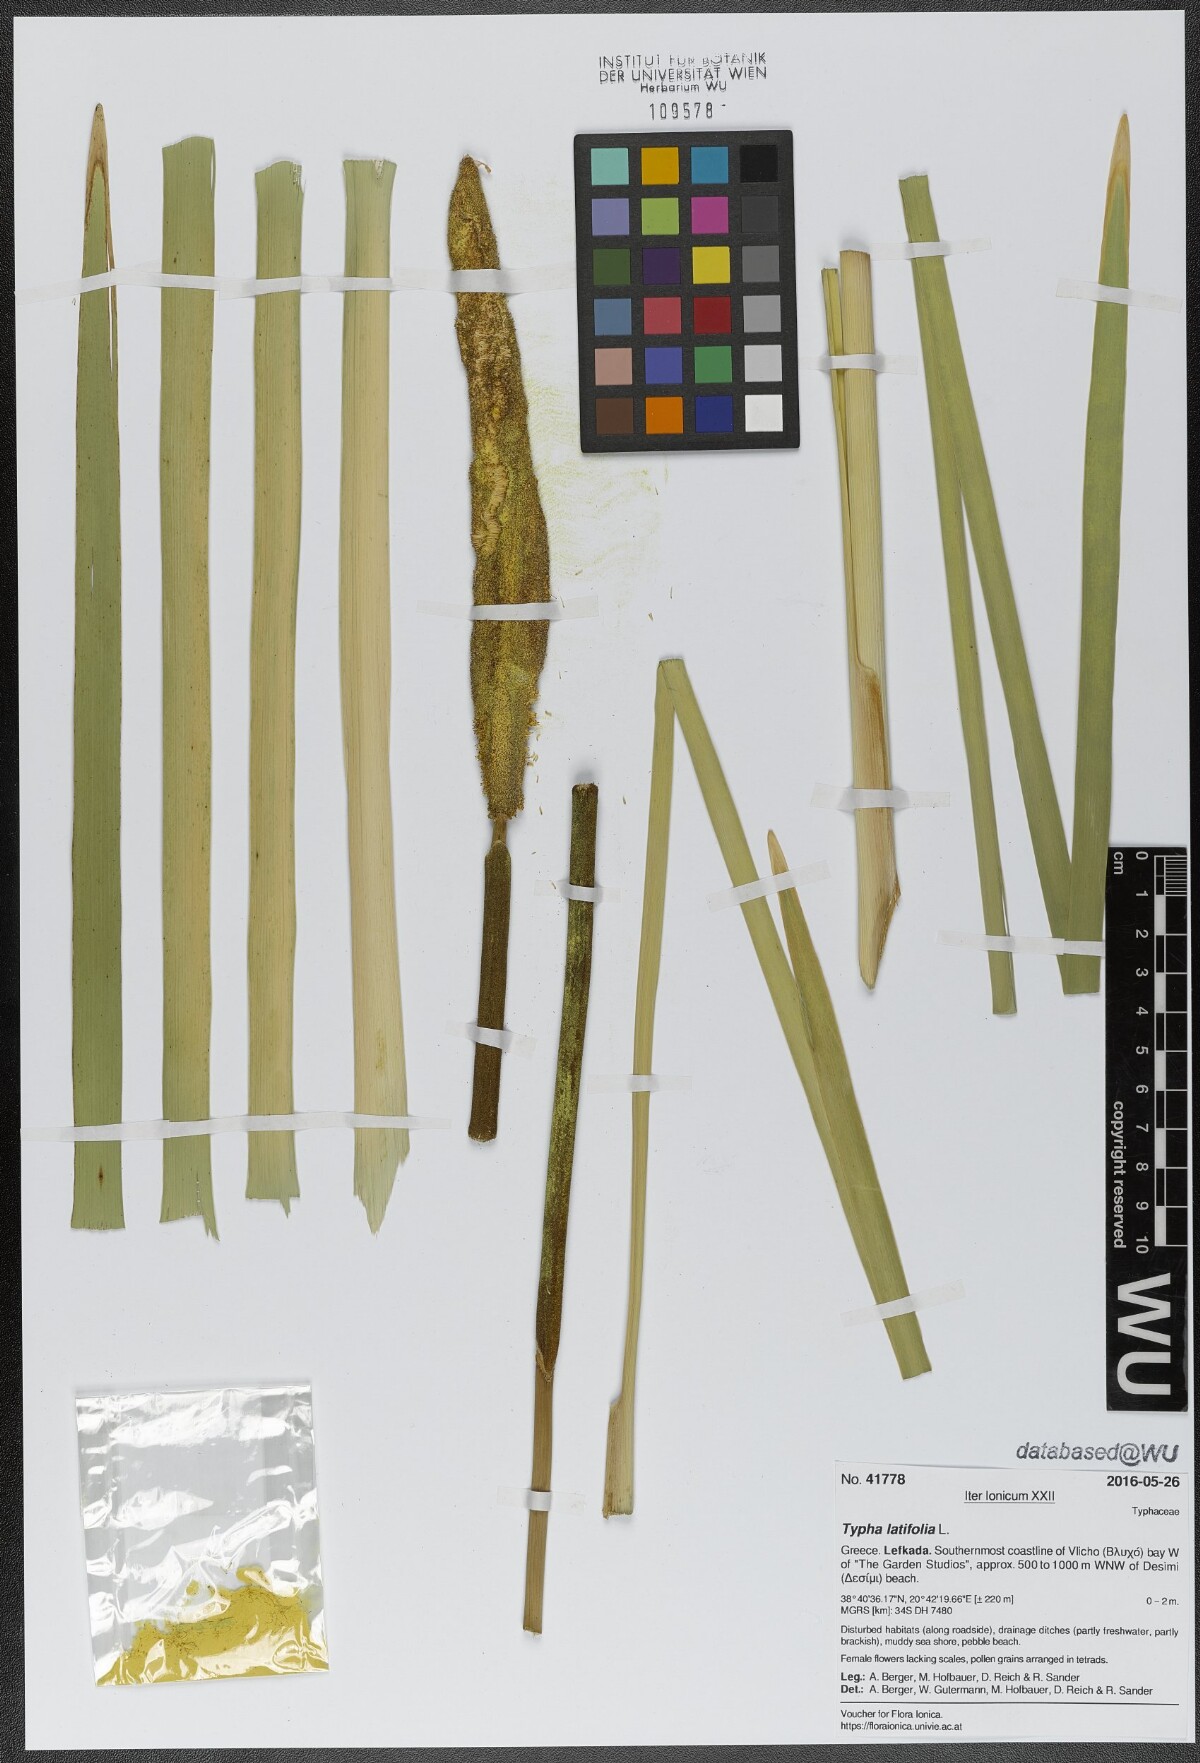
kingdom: Plantae
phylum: Tracheophyta
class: Liliopsida
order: Poales
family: Typhaceae
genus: Typha
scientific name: Typha latifolia
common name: Broadleaf cattail
